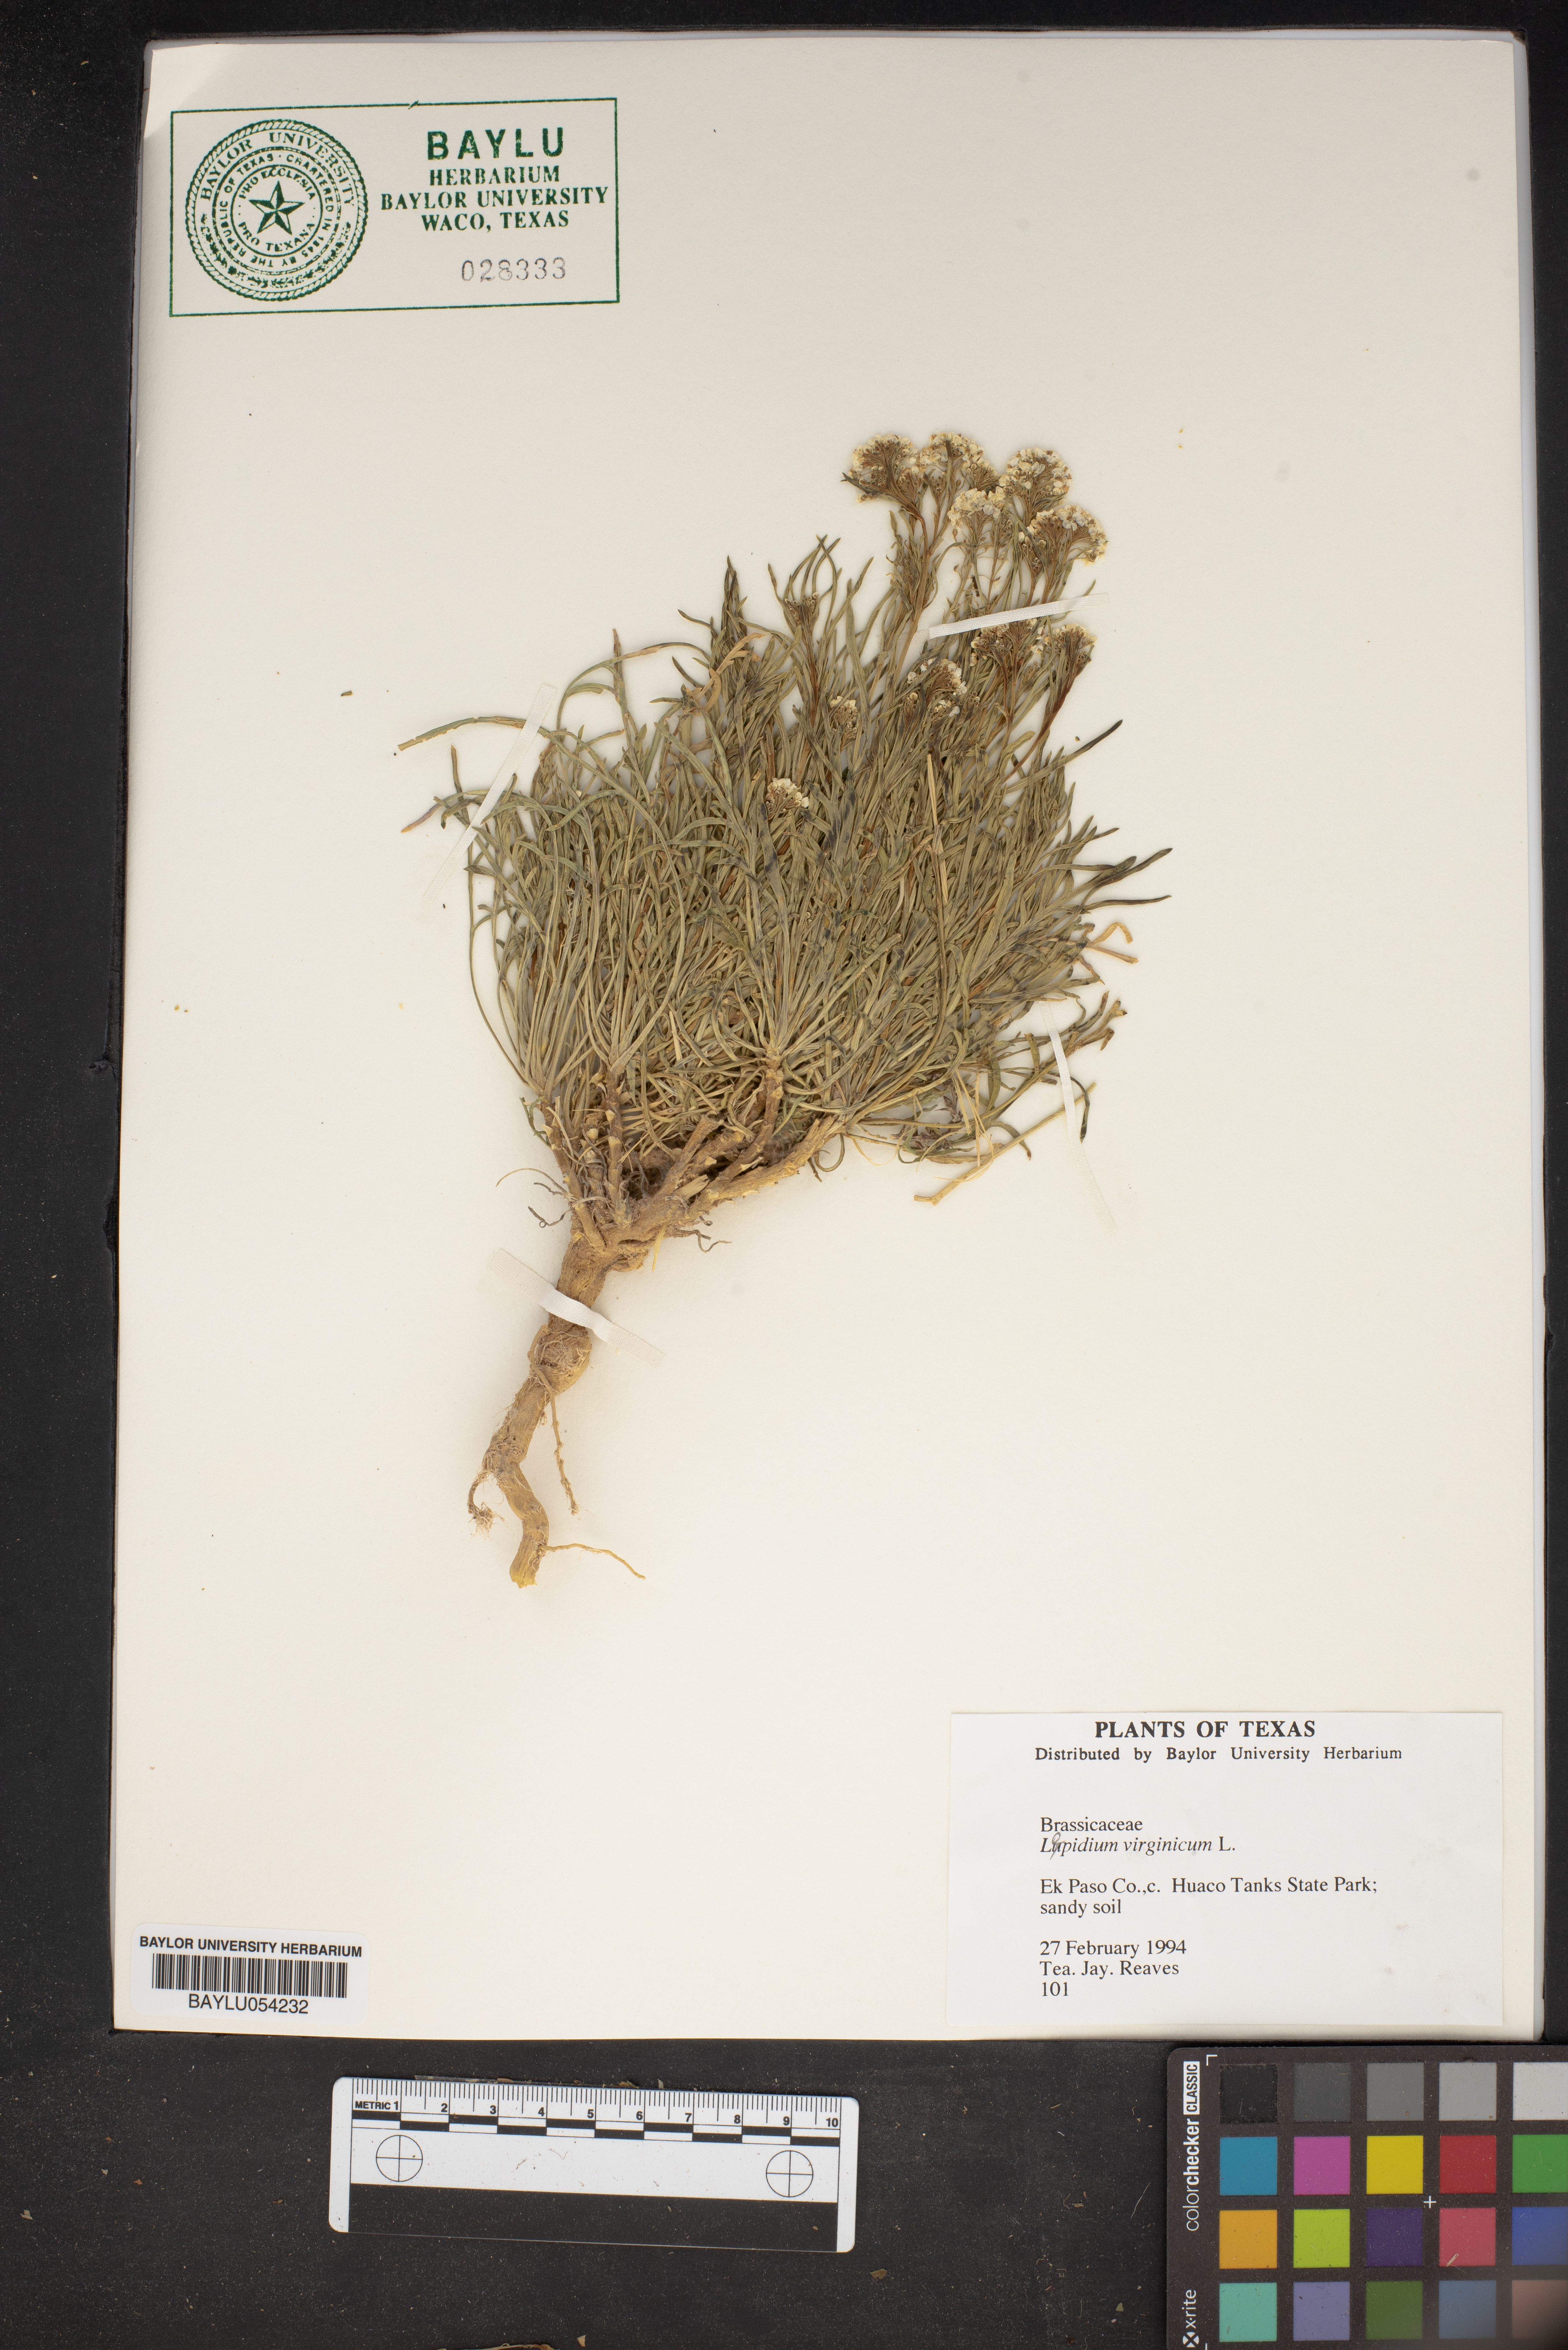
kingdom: Plantae
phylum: Tracheophyta
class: Magnoliopsida
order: Brassicales
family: Brassicaceae
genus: Lepidium
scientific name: Lepidium virginicum
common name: Least pepperwort
